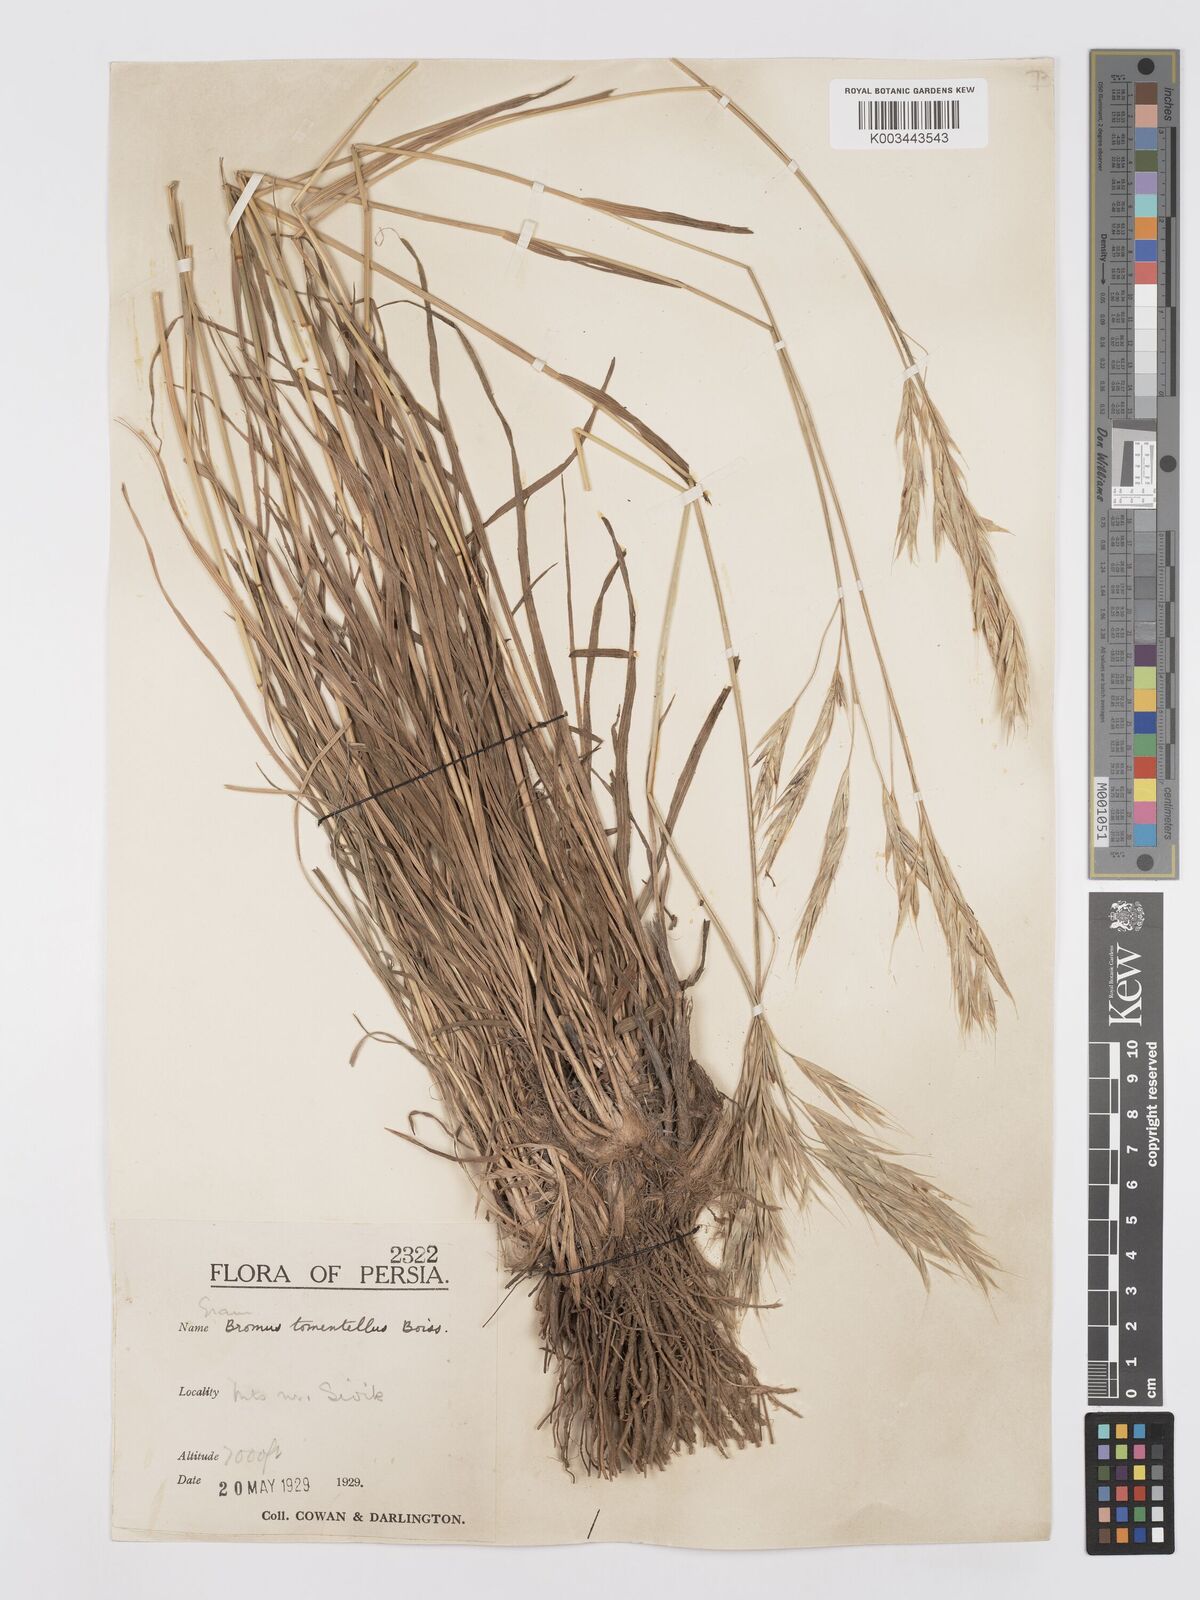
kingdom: Plantae
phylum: Tracheophyta
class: Liliopsida
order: Poales
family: Poaceae
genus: Bromus
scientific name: Bromus tomentellus
